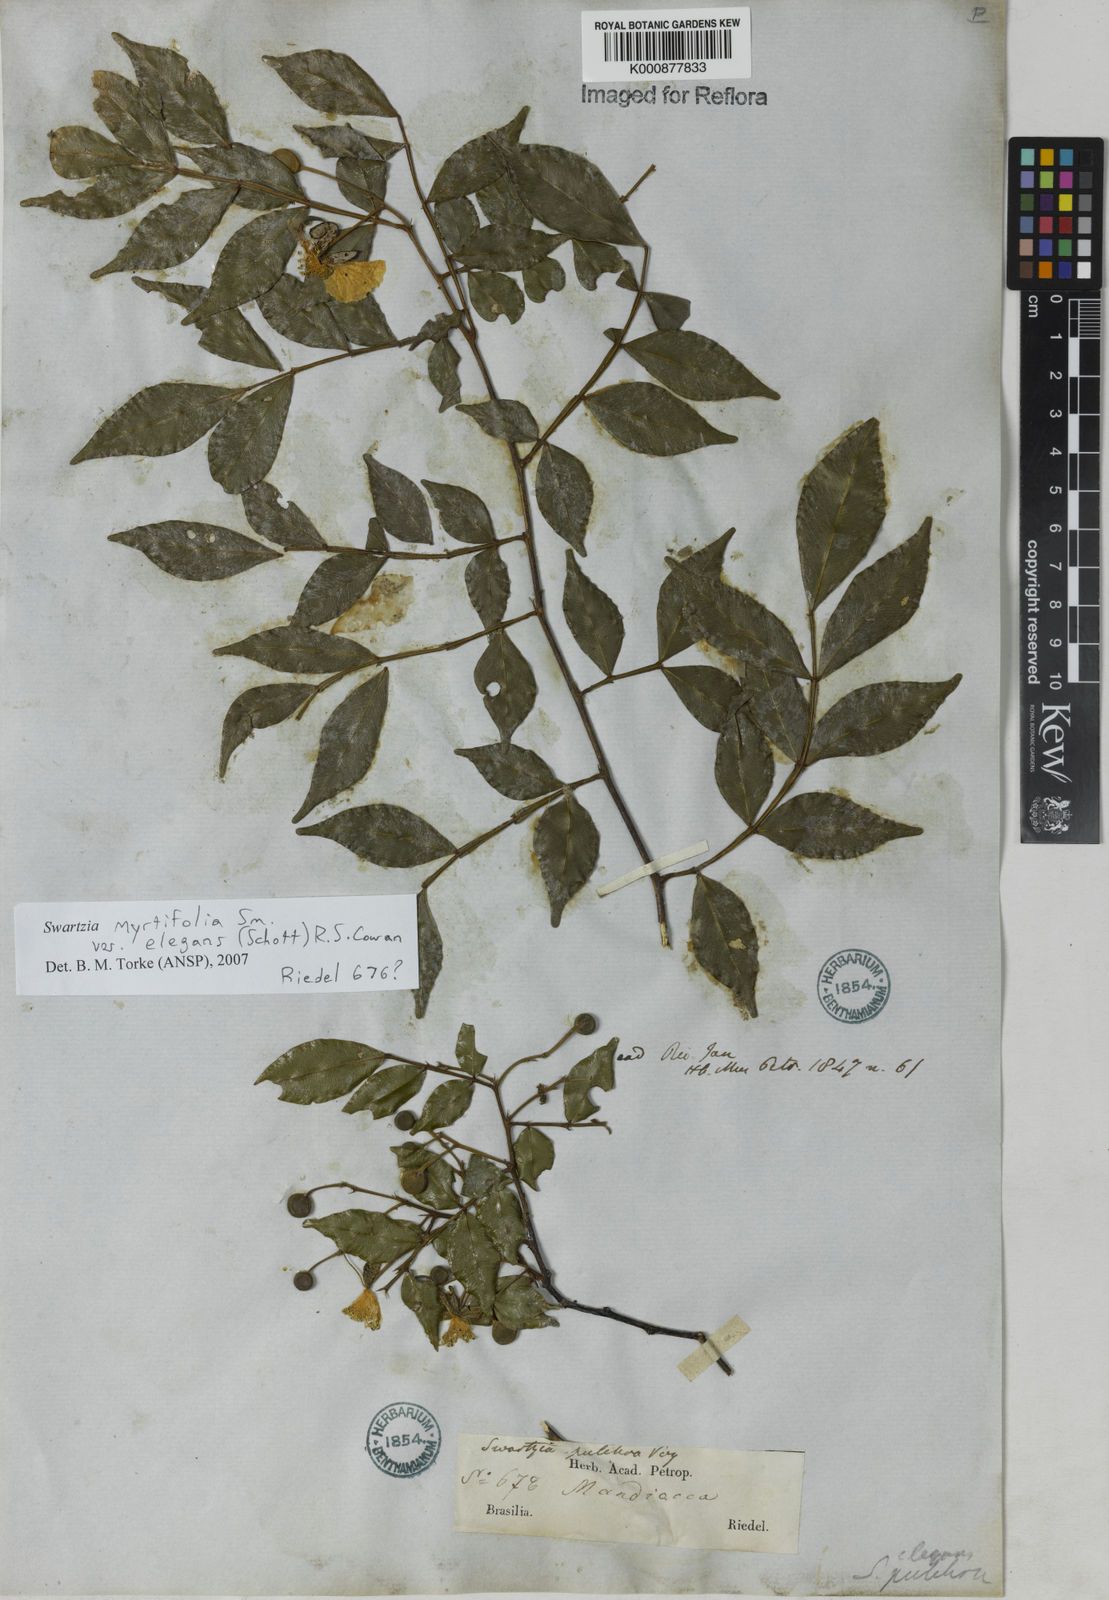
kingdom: Plantae
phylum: Tracheophyta
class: Magnoliopsida
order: Fabales
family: Fabaceae
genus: Swartzia
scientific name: Swartzia myrtifolia
